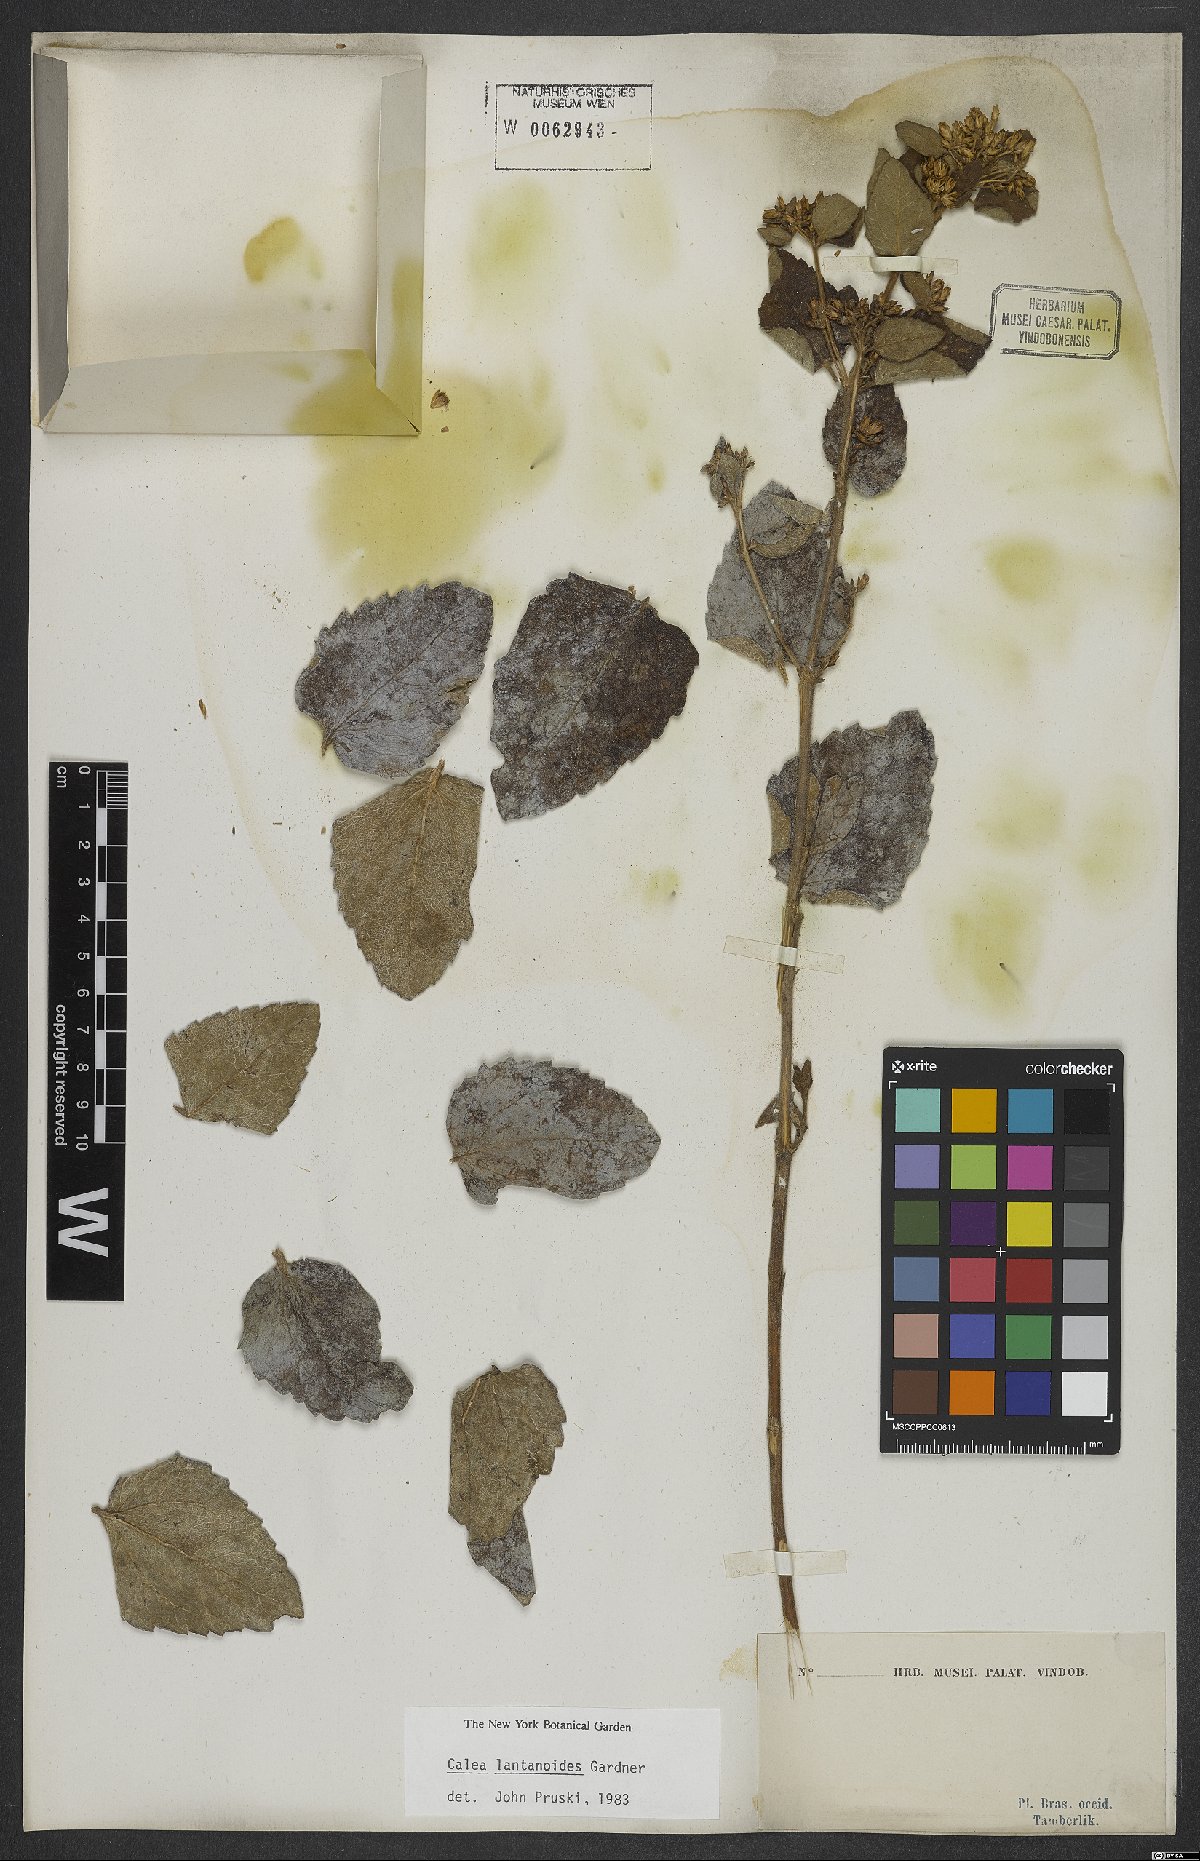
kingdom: Plantae
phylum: Tracheophyta
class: Magnoliopsida
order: Asterales
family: Asteraceae
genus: Calea
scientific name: Calea lantanoides
